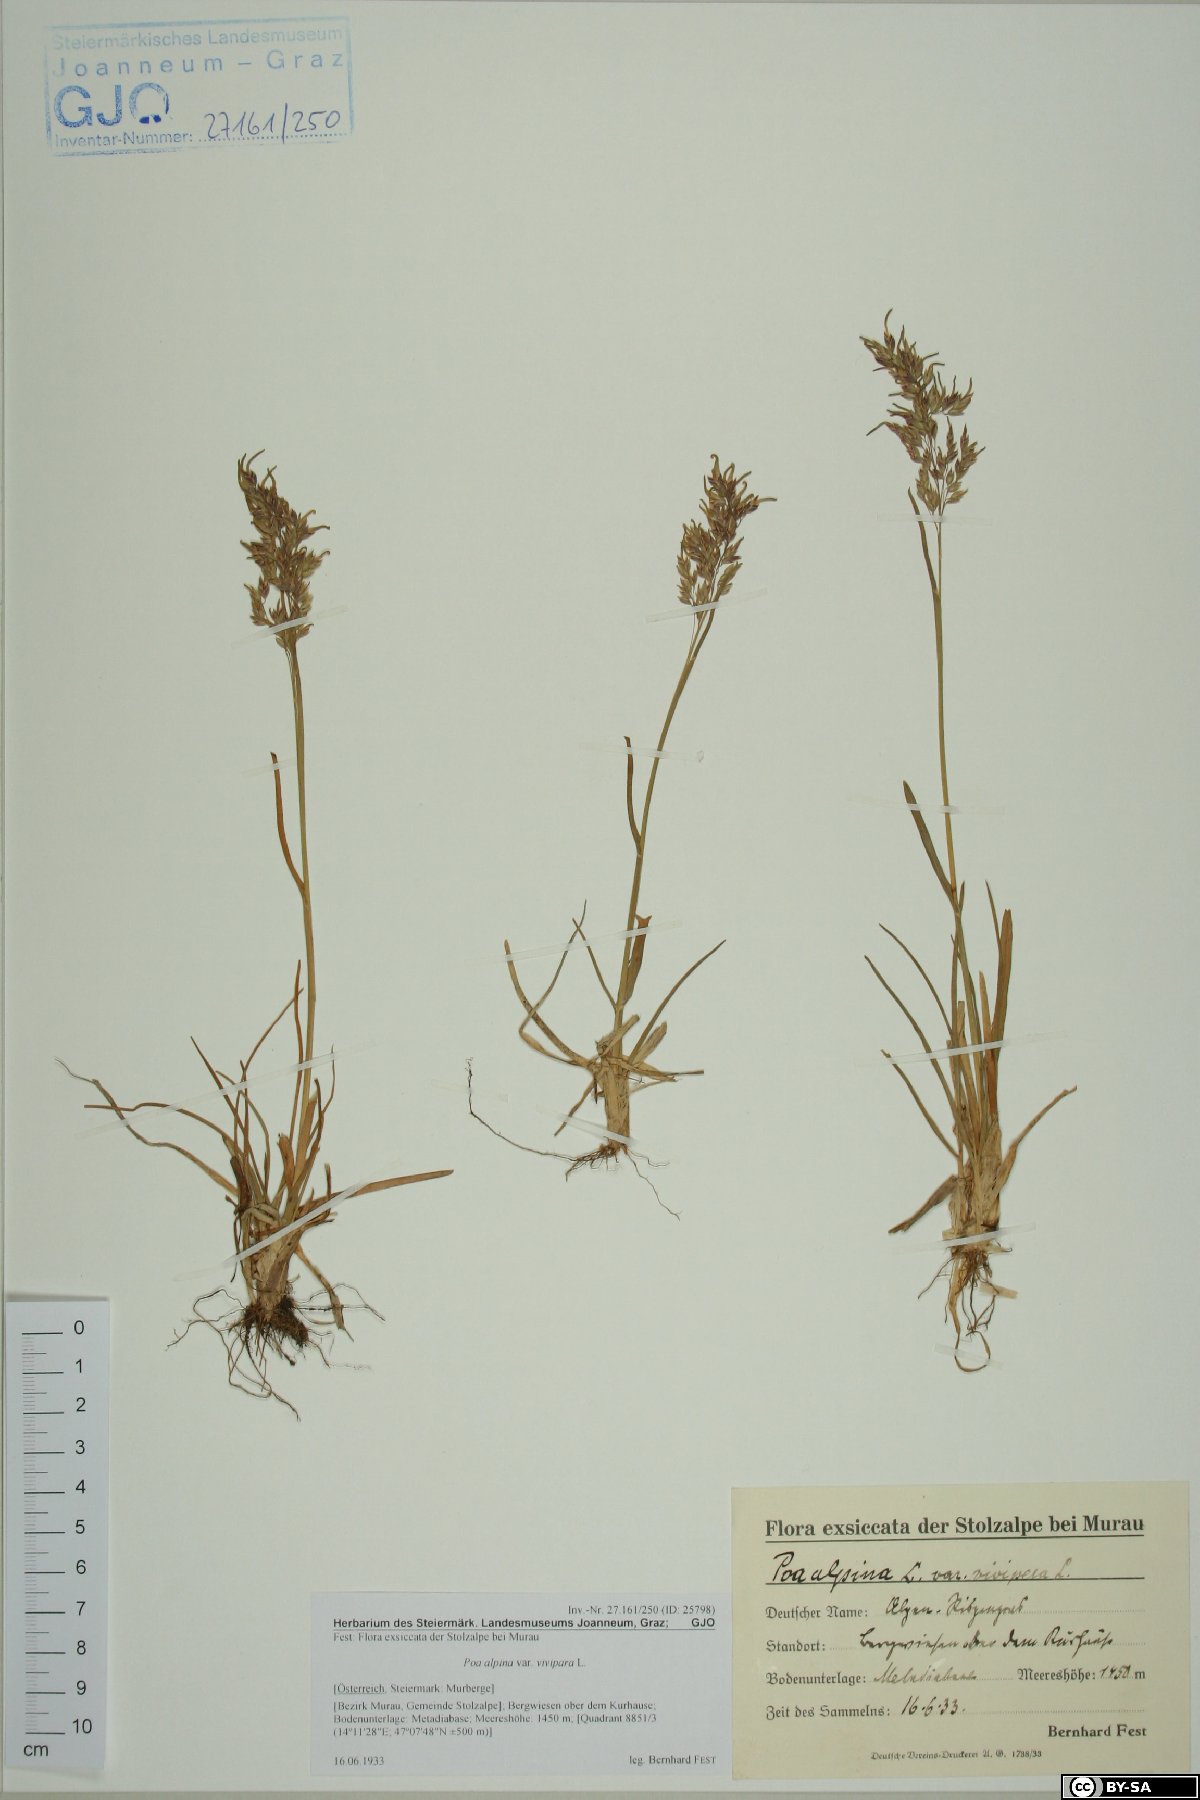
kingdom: Plantae
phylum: Tracheophyta
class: Liliopsida
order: Poales
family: Poaceae
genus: Poa
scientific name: Poa alpina
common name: Alpine bluegrass
